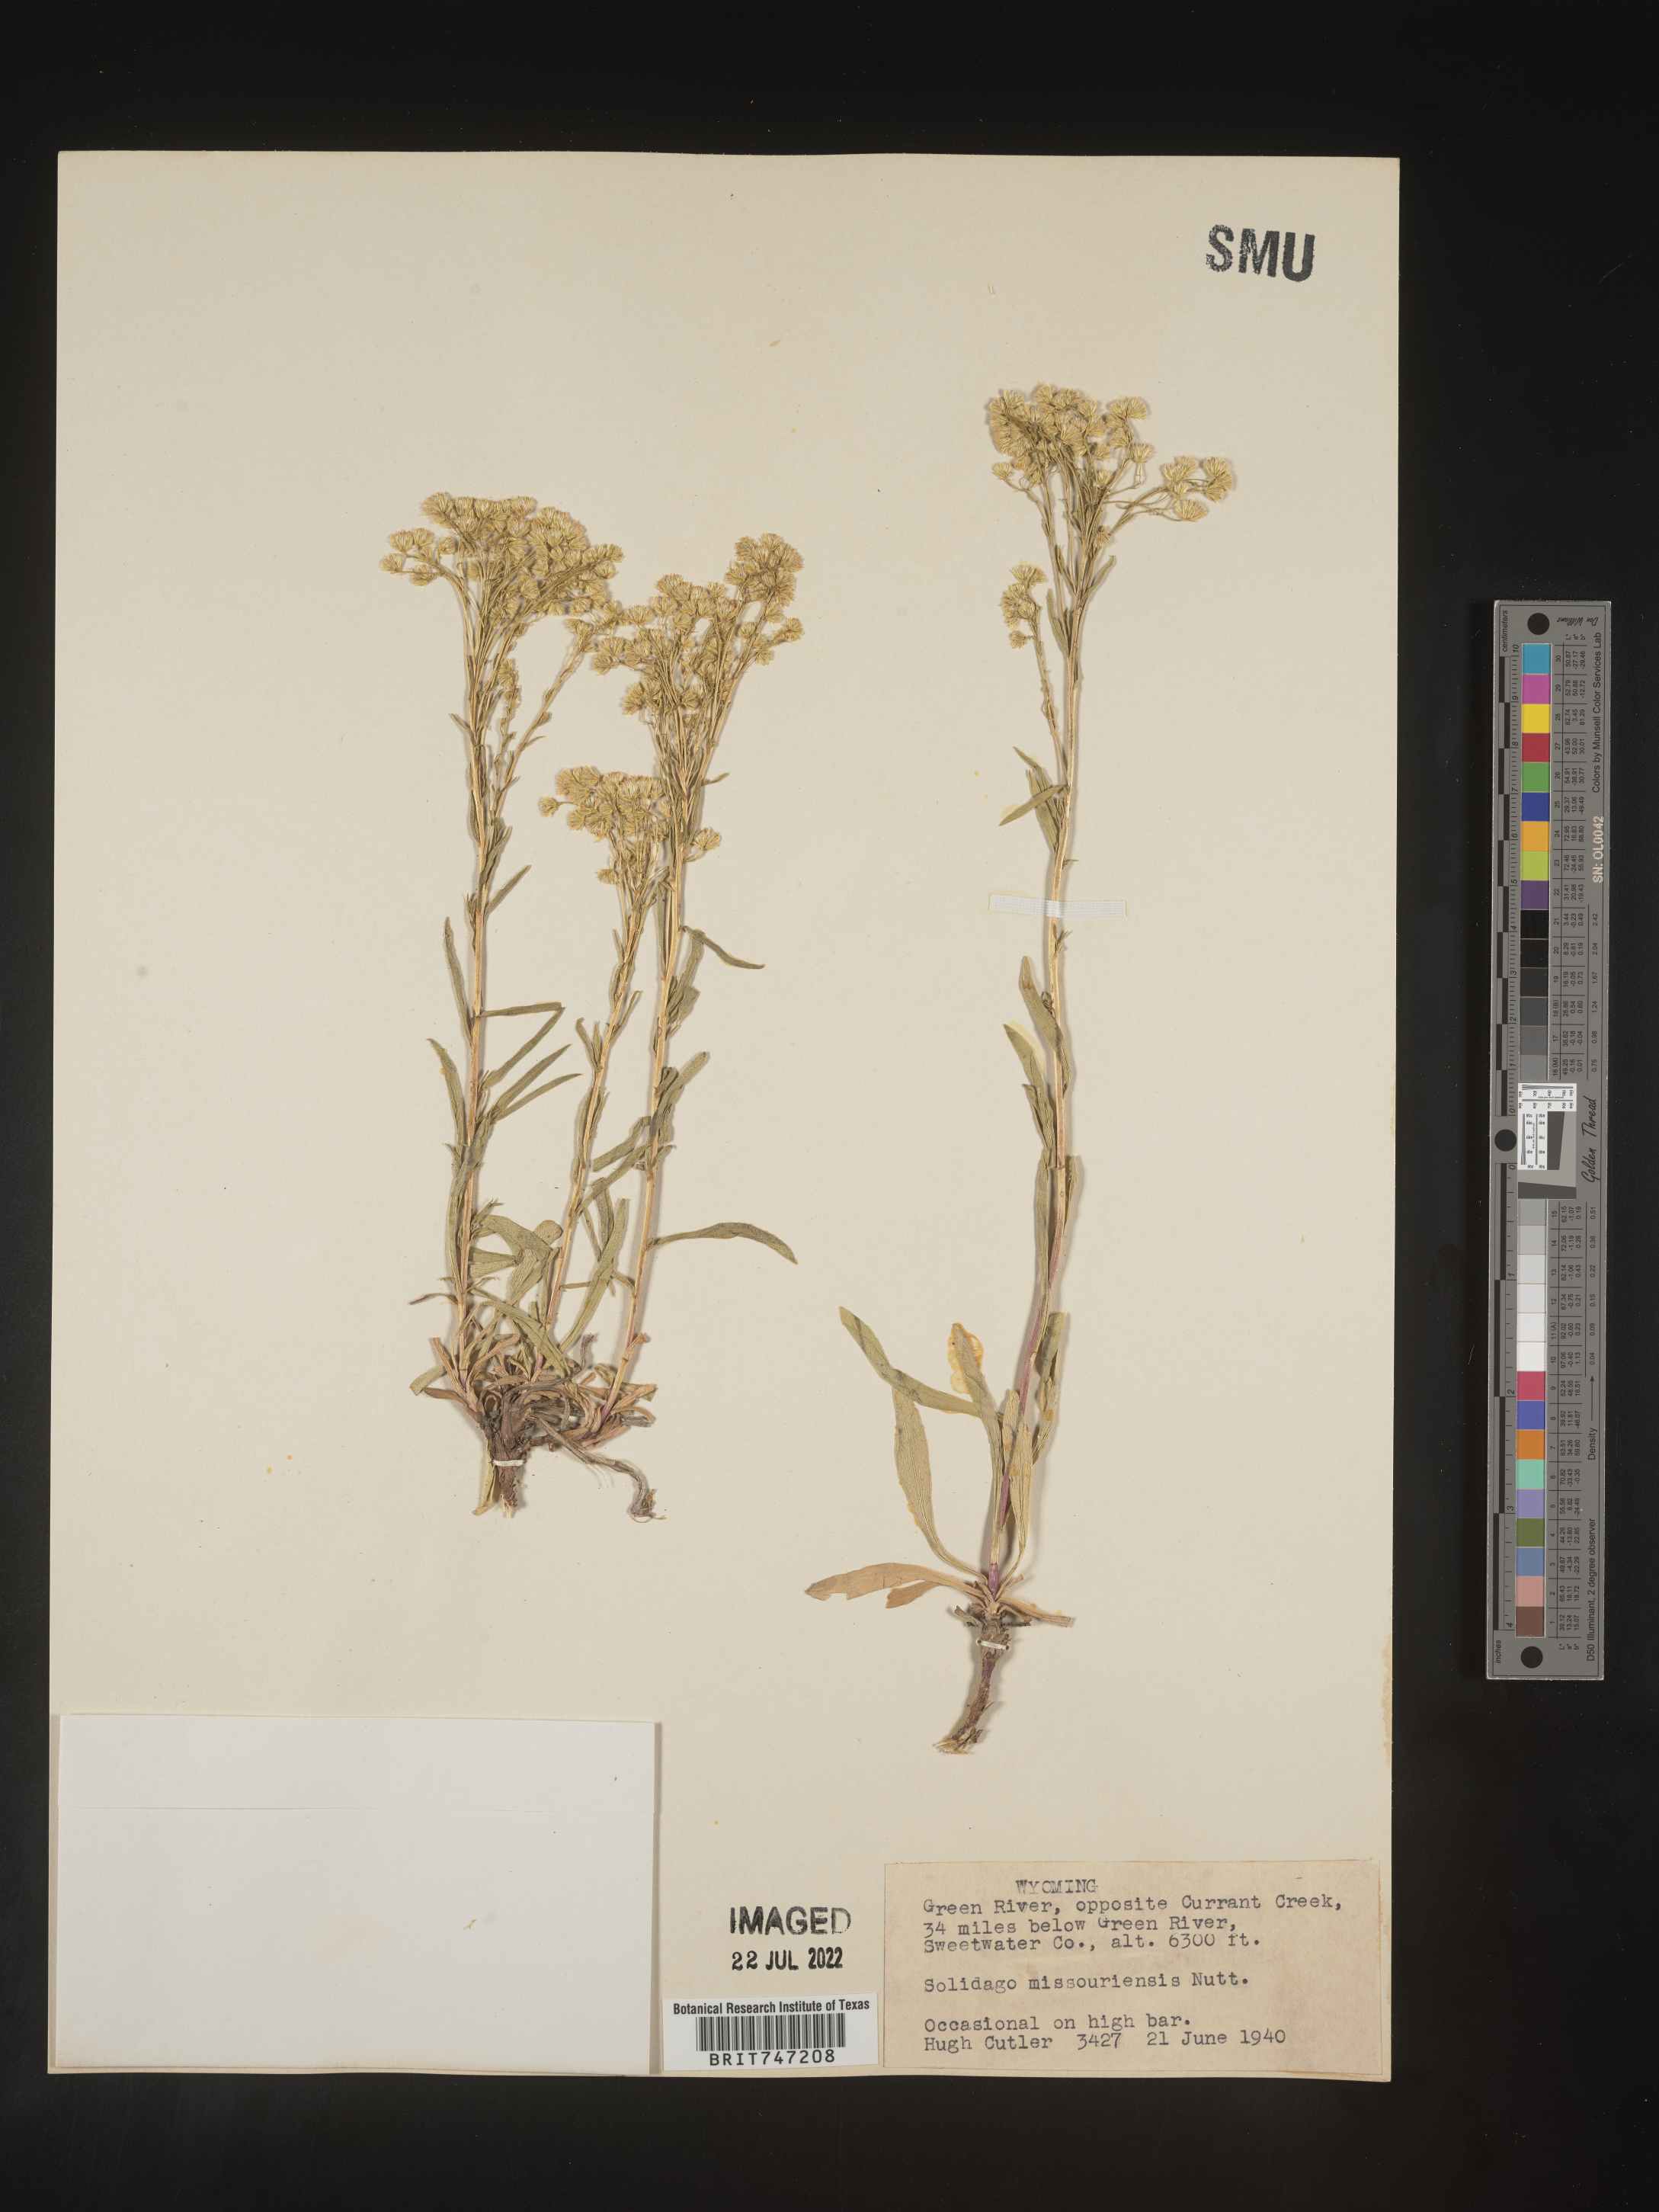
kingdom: Plantae
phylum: Tracheophyta
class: Magnoliopsida
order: Asterales
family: Asteraceae
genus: Solidago
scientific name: Solidago missouriensis
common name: Prairie goldenrod
